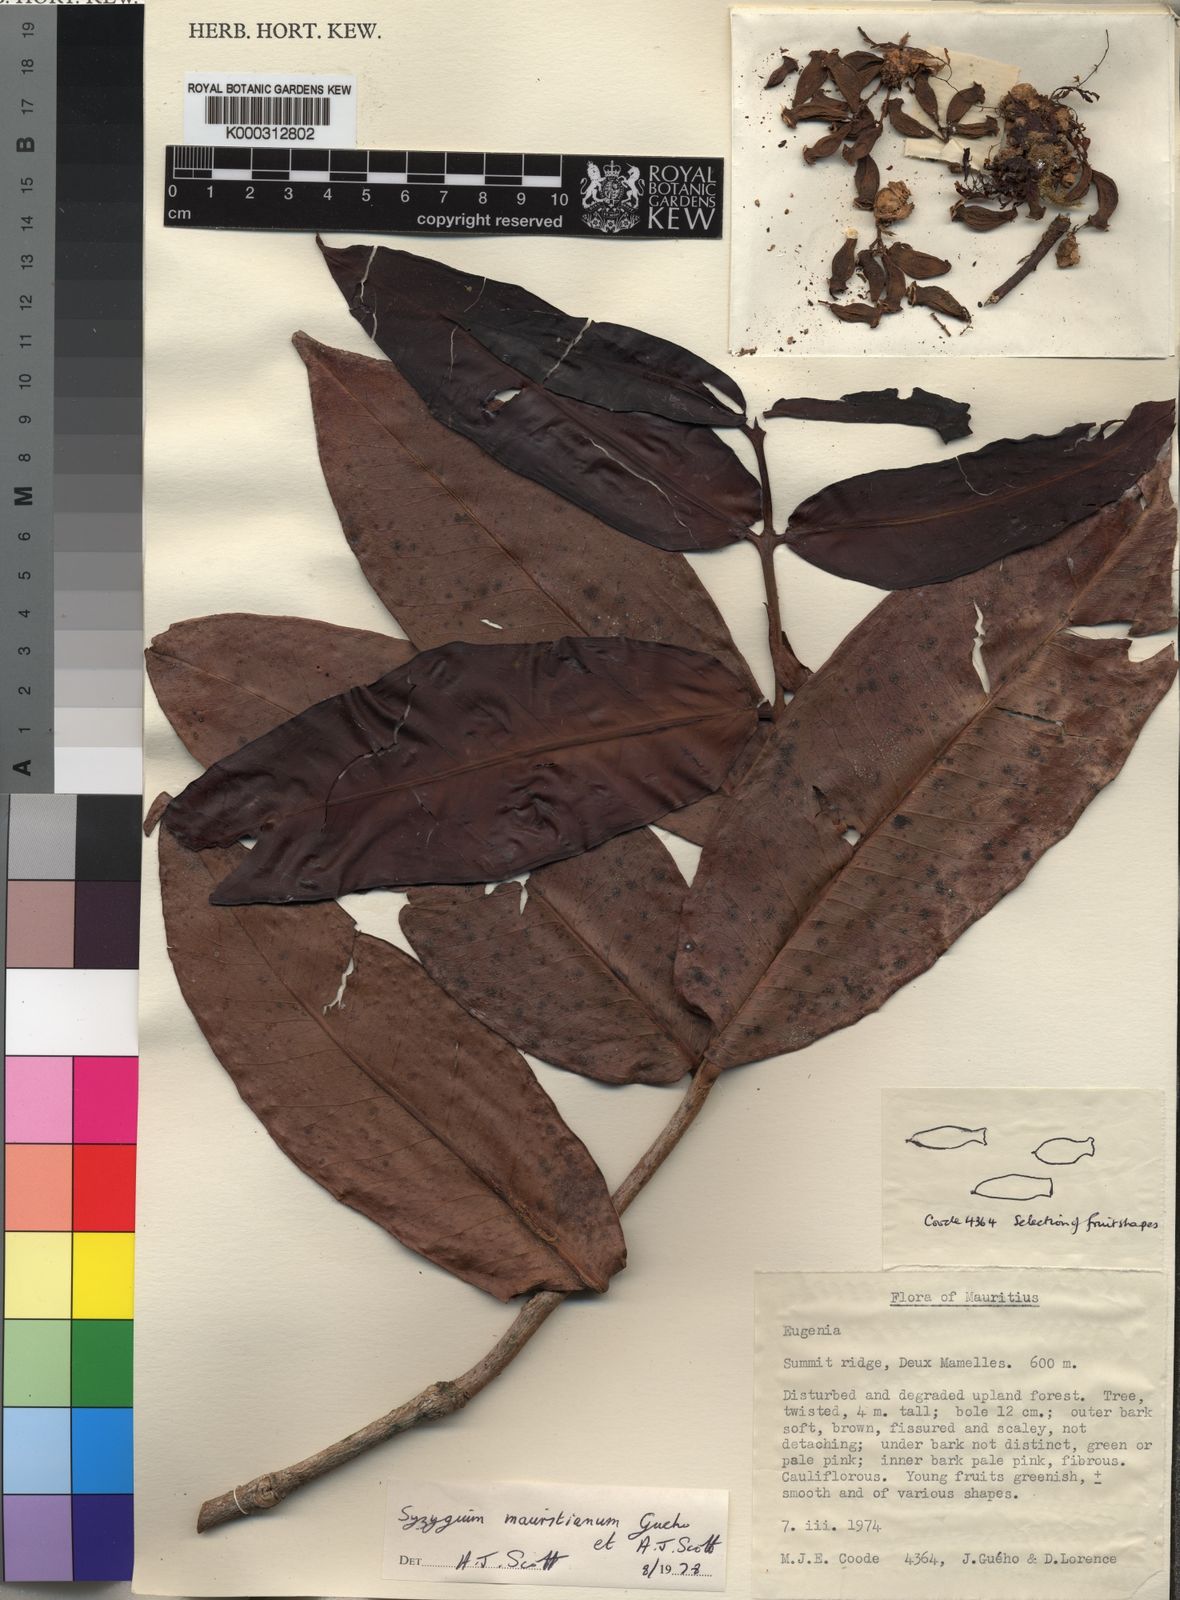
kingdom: Plantae
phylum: Tracheophyta
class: Magnoliopsida
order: Myrtales
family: Myrtaceae
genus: Syzygium
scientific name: Syzygium mauritianum
